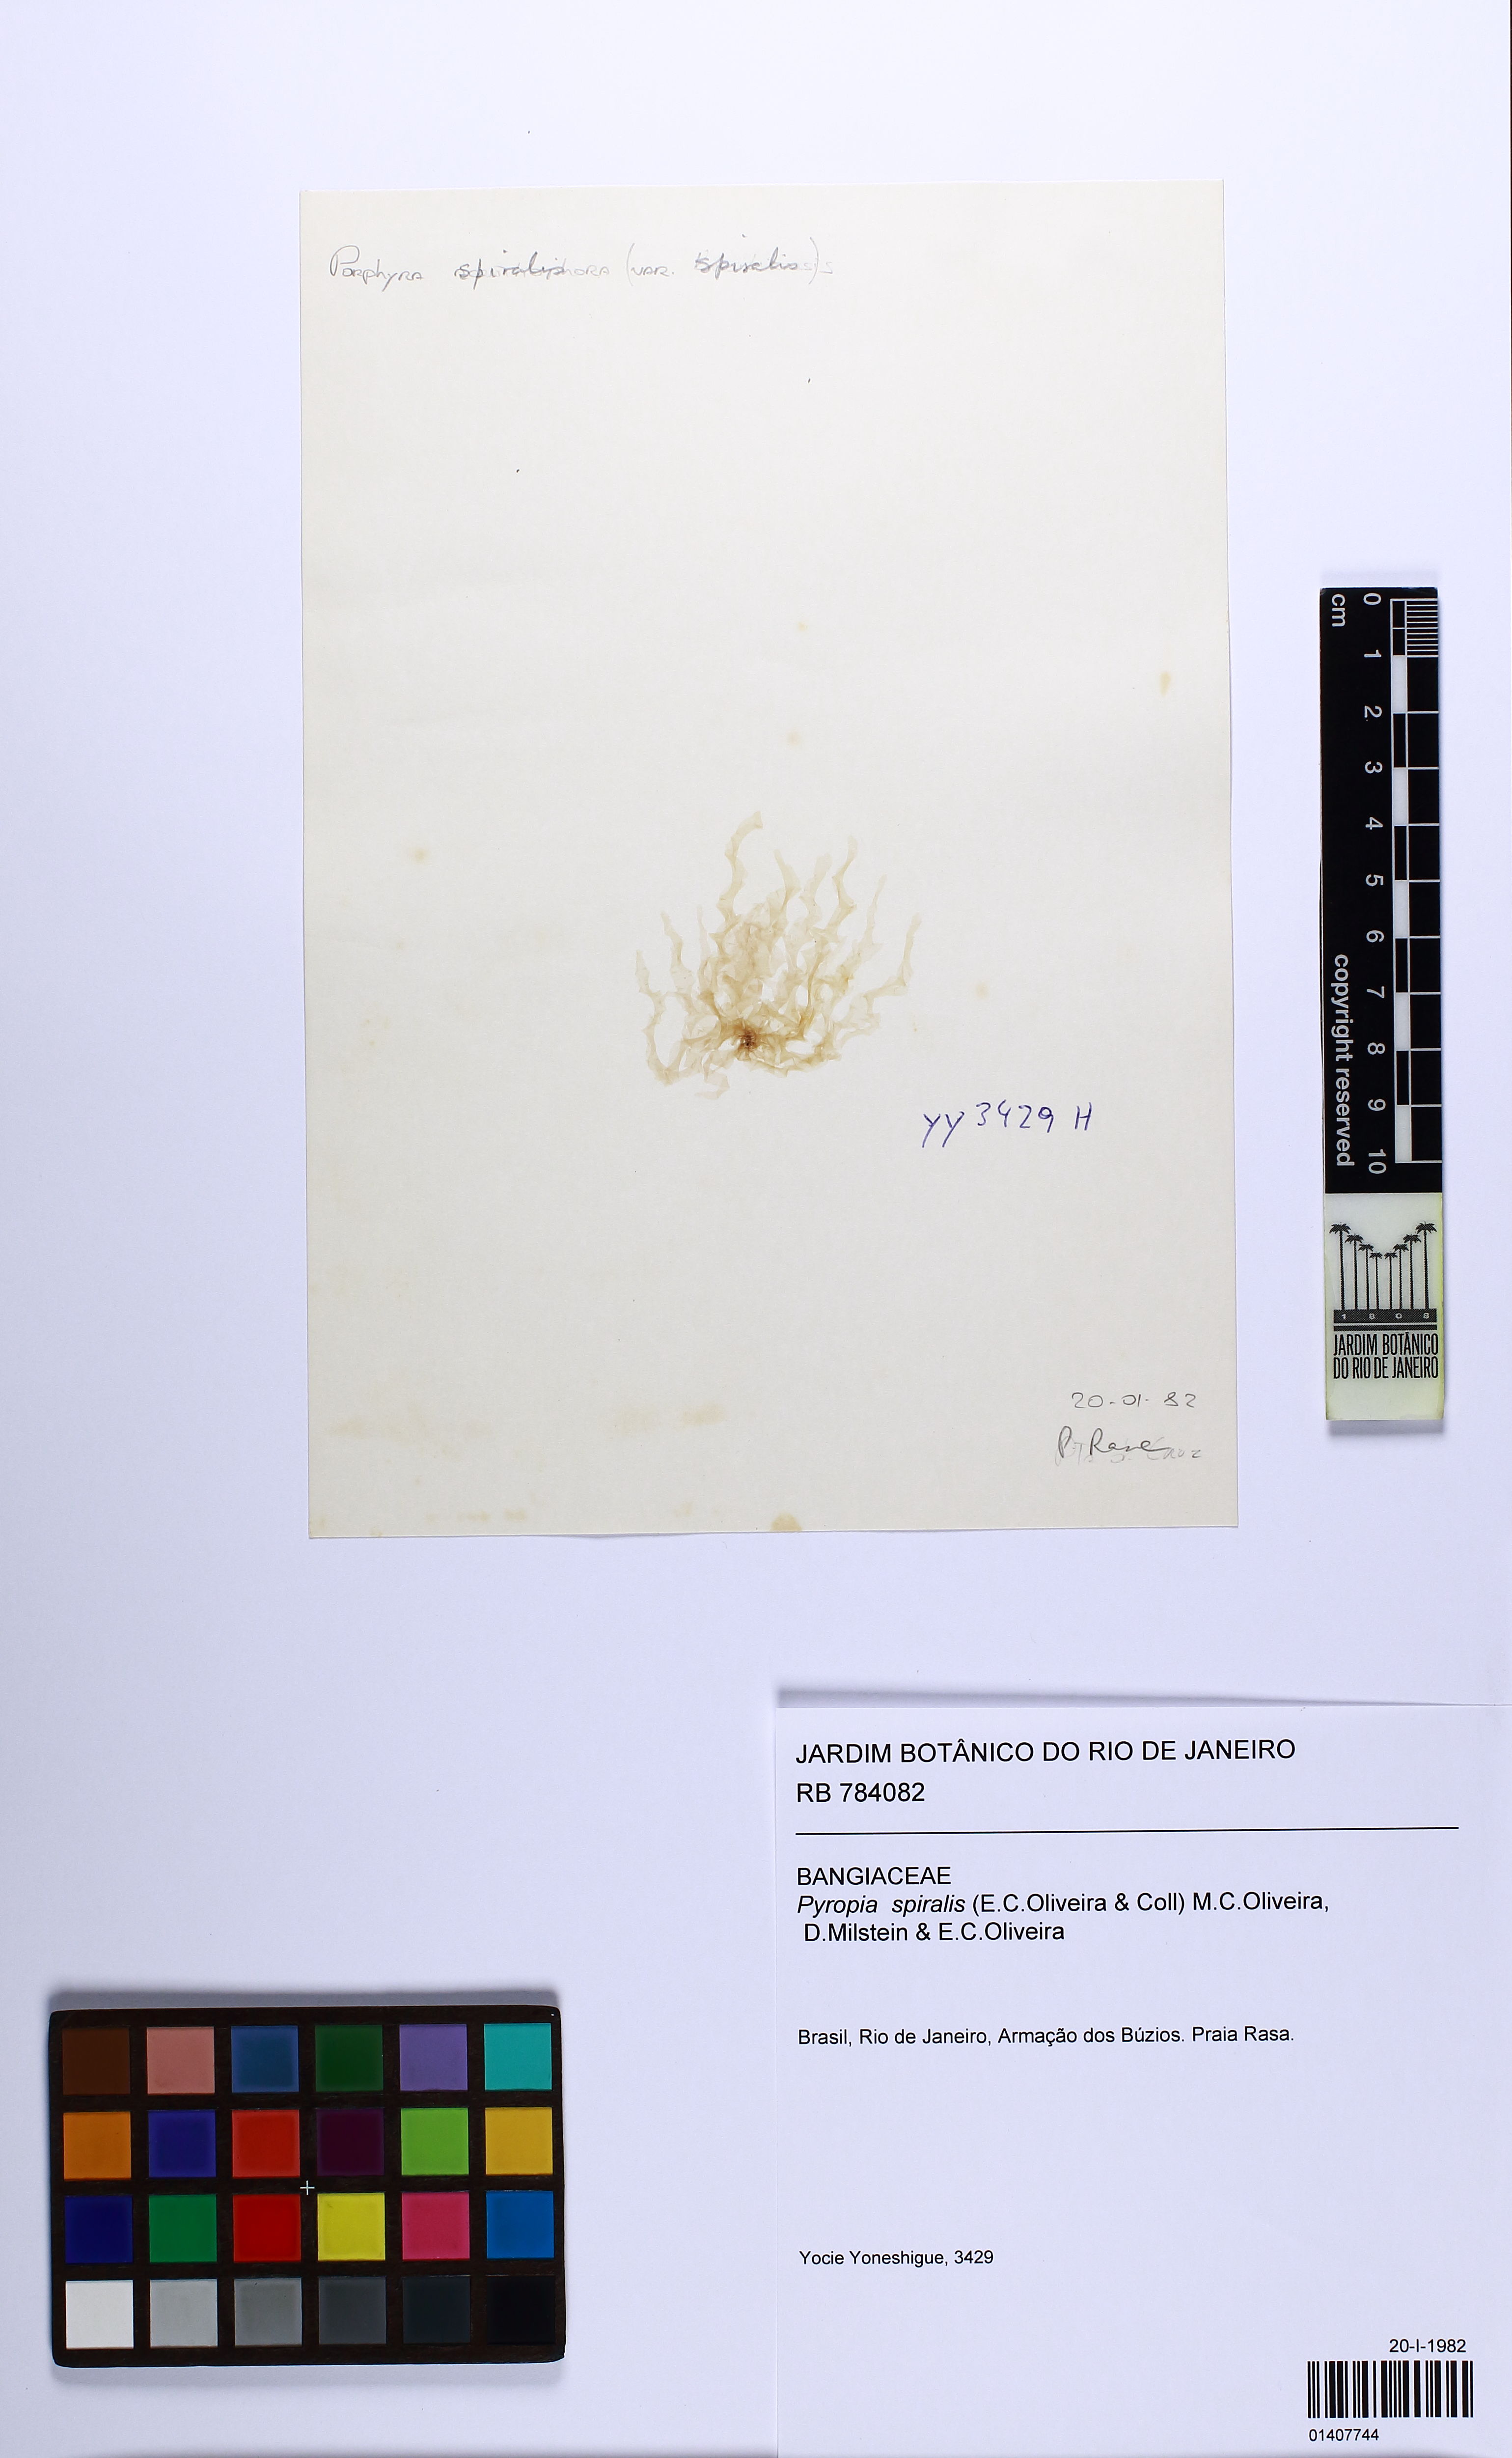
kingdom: Plantae
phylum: Rhodophyta
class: Bangiophyceae
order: Bangiales
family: Bangiaceae
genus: Pyropia
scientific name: Pyropia spiralis
